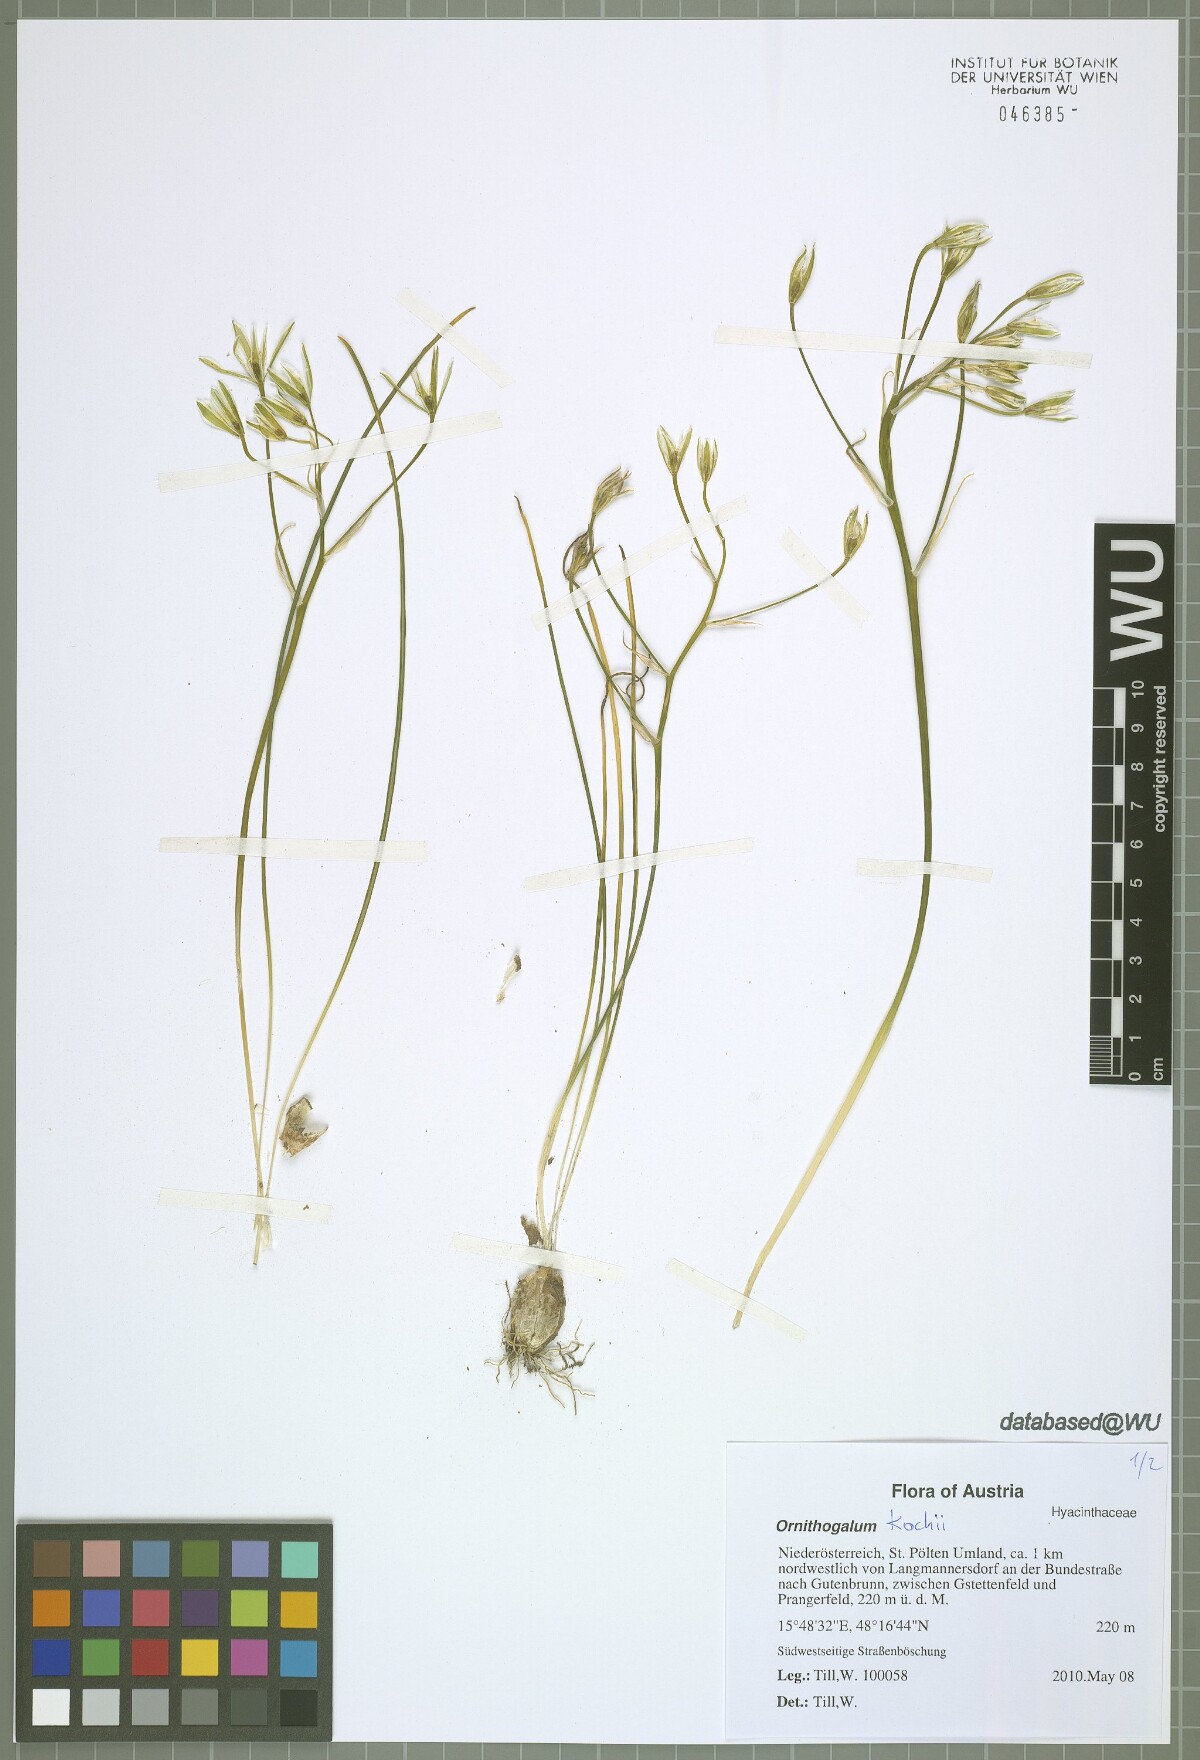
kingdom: Plantae
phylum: Tracheophyta
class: Liliopsida
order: Asparagales
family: Asparagaceae
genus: Ornithogalum
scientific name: Ornithogalum orthophyllum
